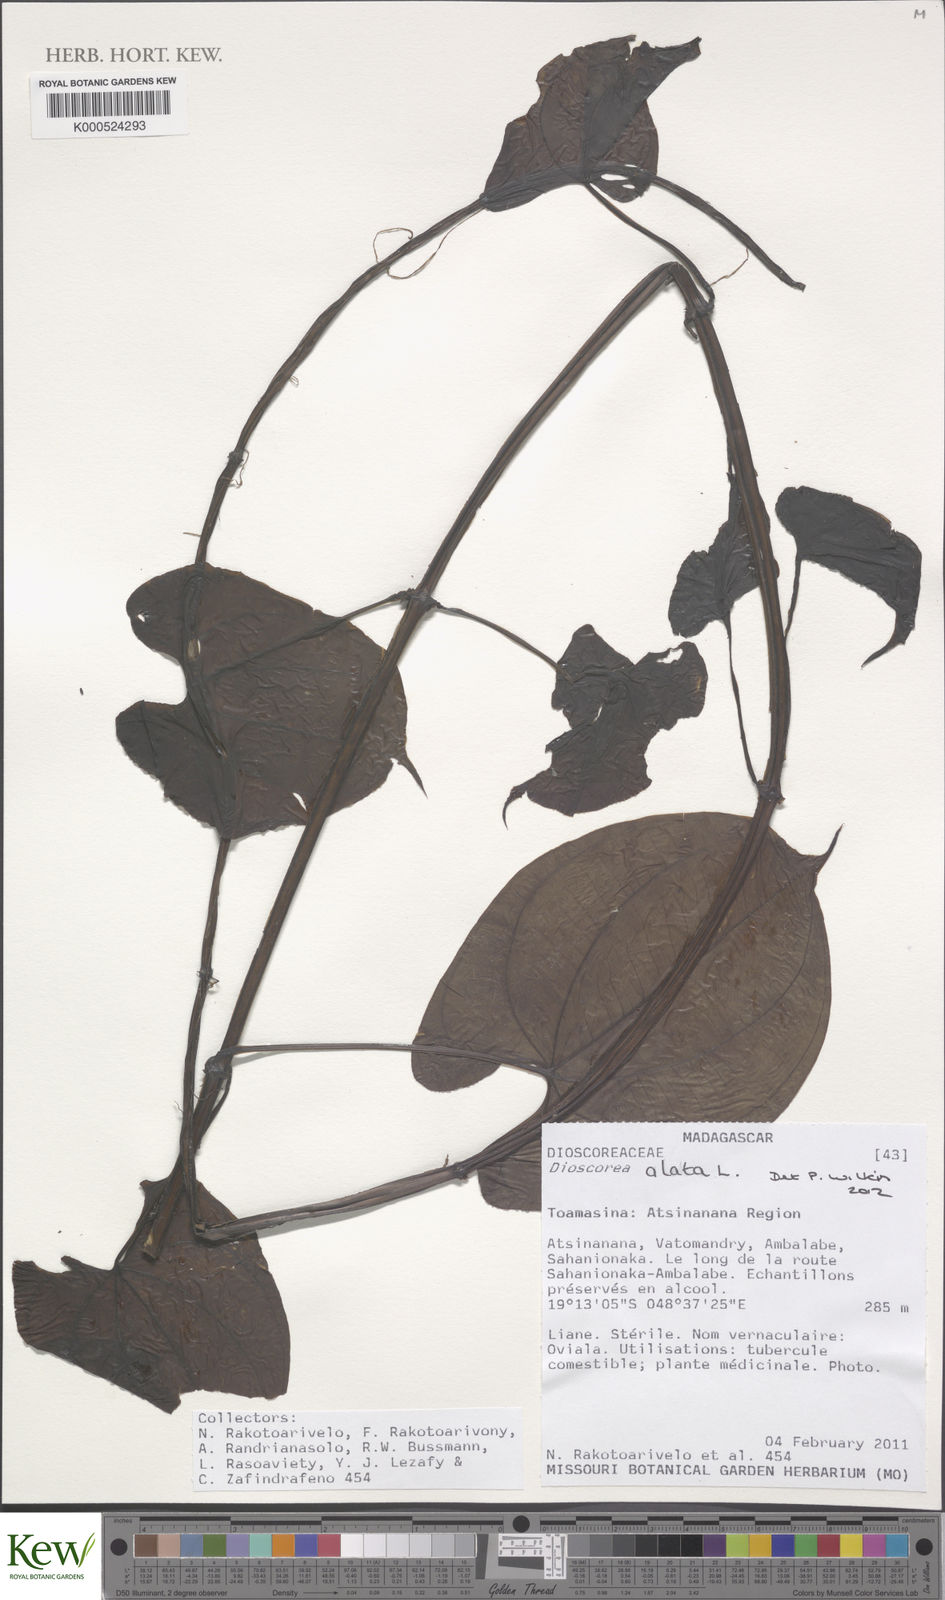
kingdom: Plantae
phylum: Tracheophyta
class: Liliopsida
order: Dioscoreales
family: Dioscoreaceae
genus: Dioscorea
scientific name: Dioscorea alata
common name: Water yam
